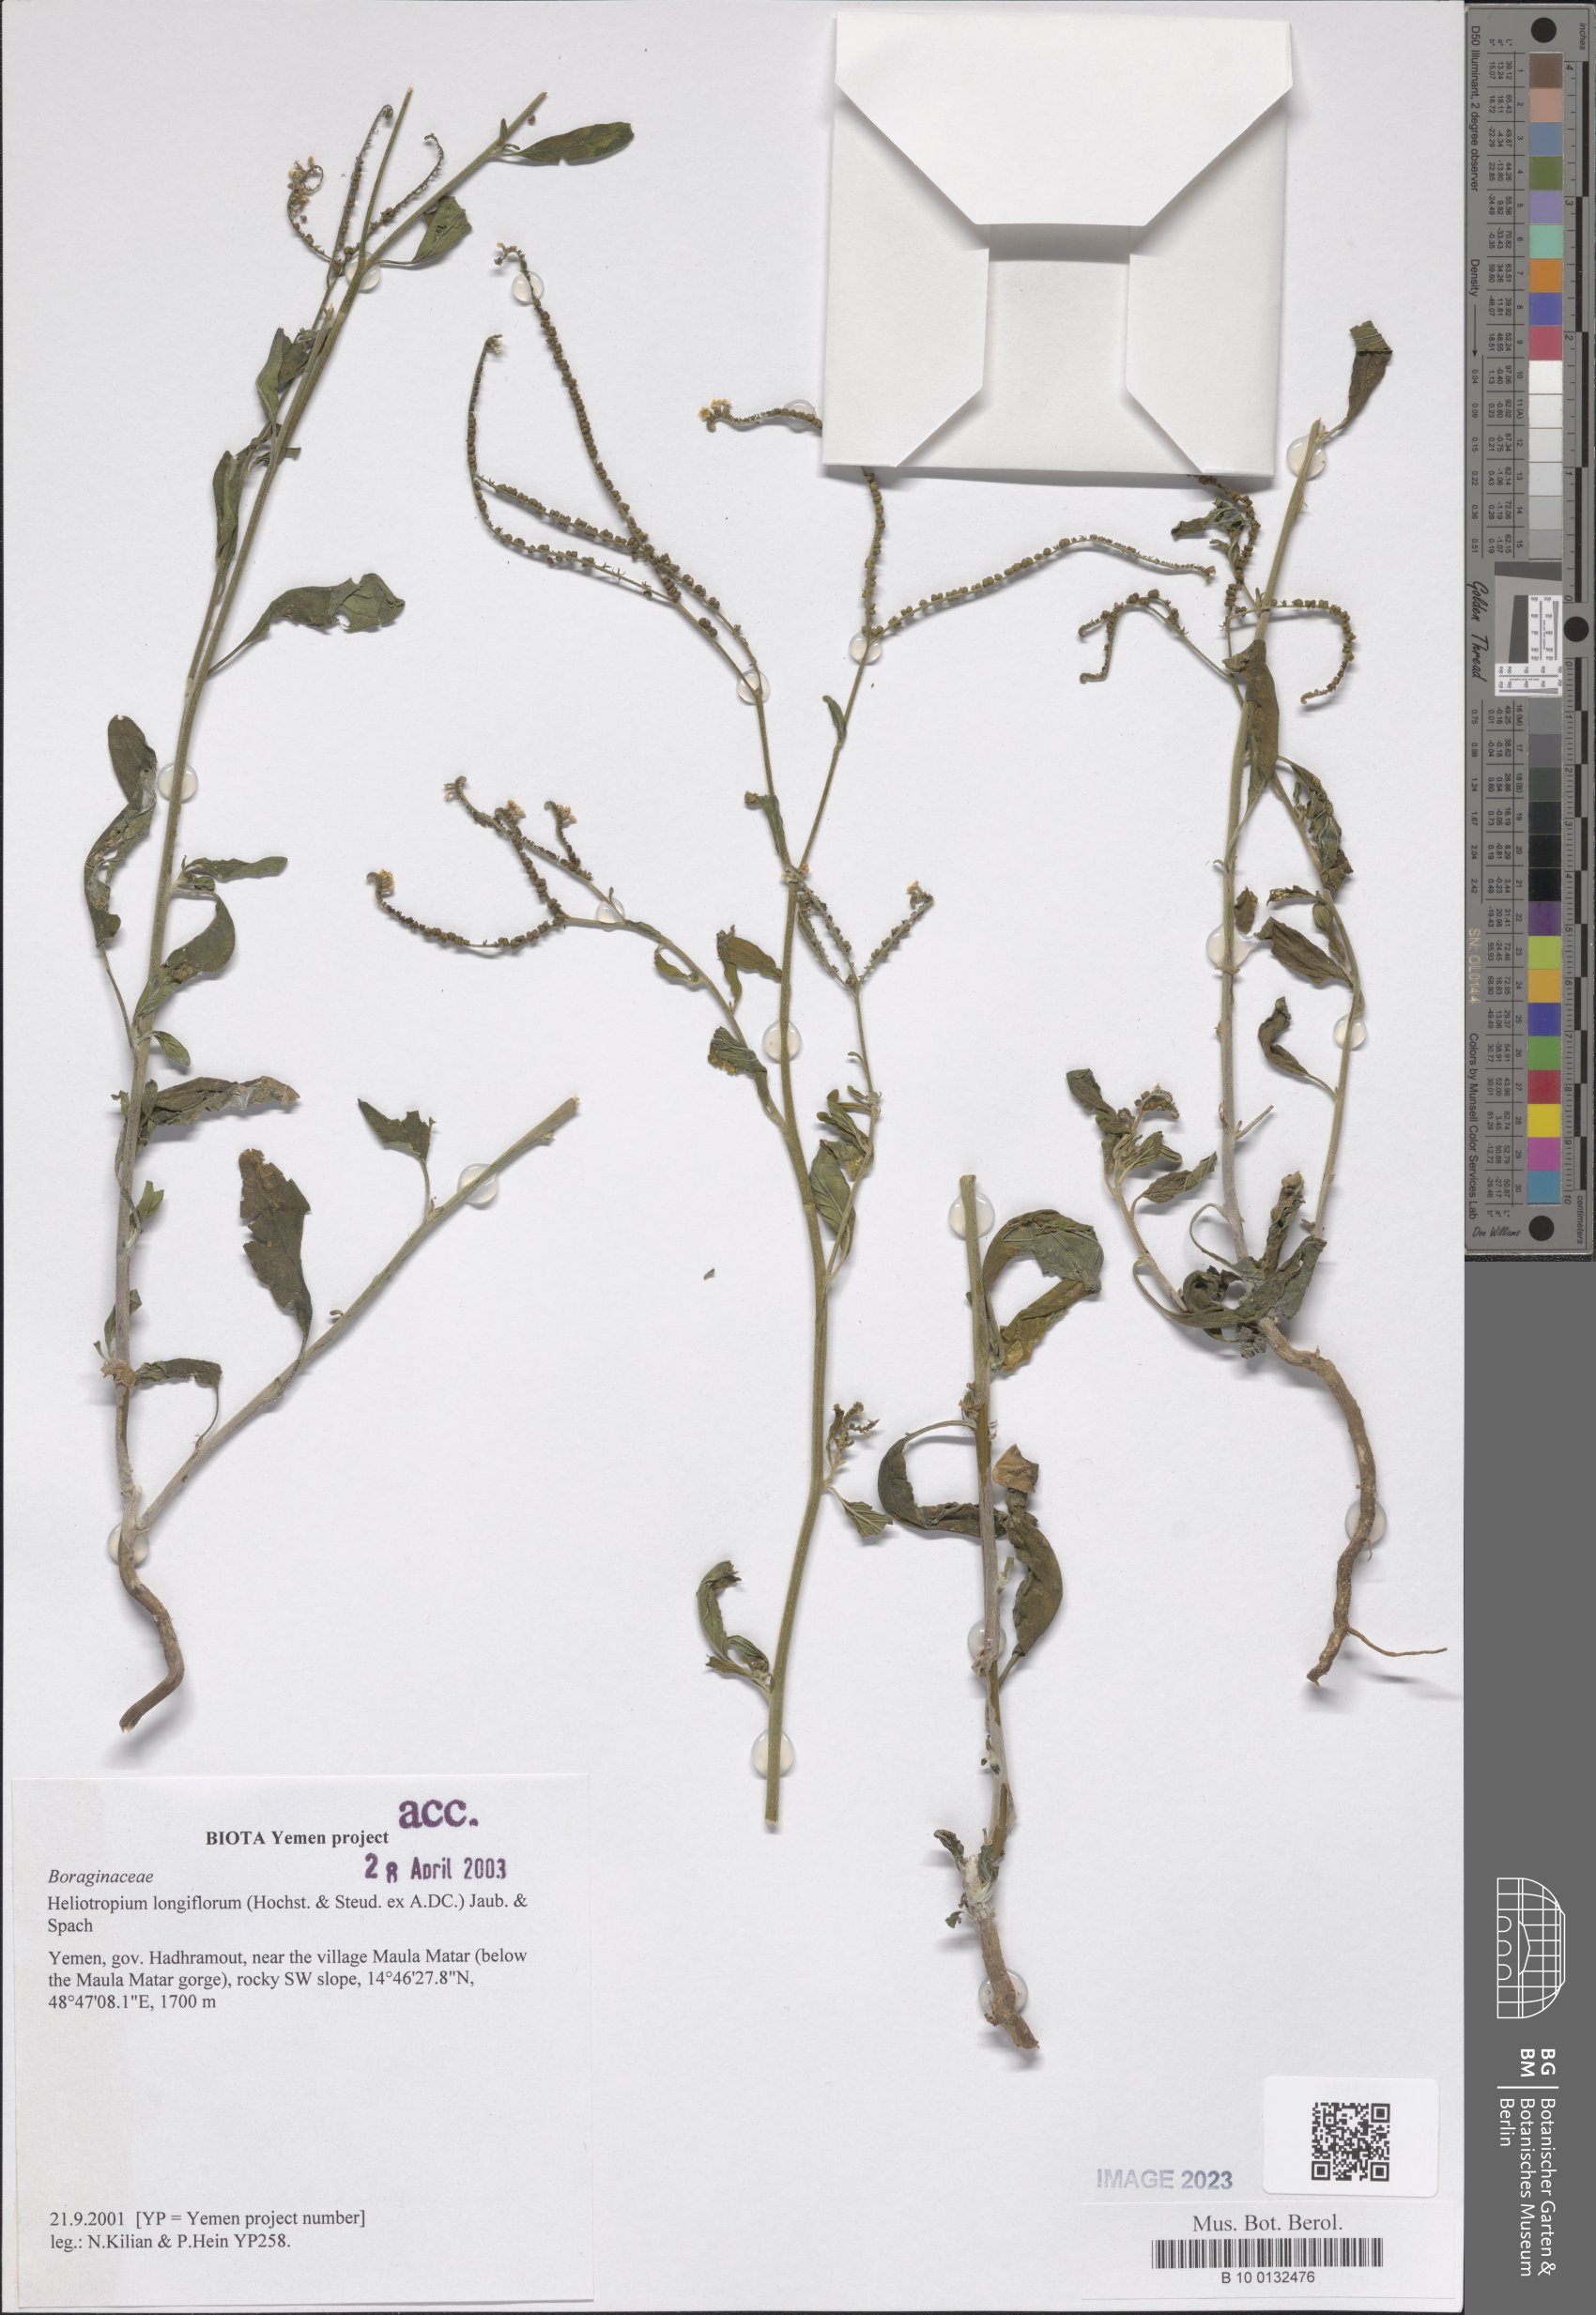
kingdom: Plantae
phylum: Tracheophyta
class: Magnoliopsida
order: Boraginales
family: Heliotropiaceae
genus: Heliotropium
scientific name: Heliotropium longiflorum
